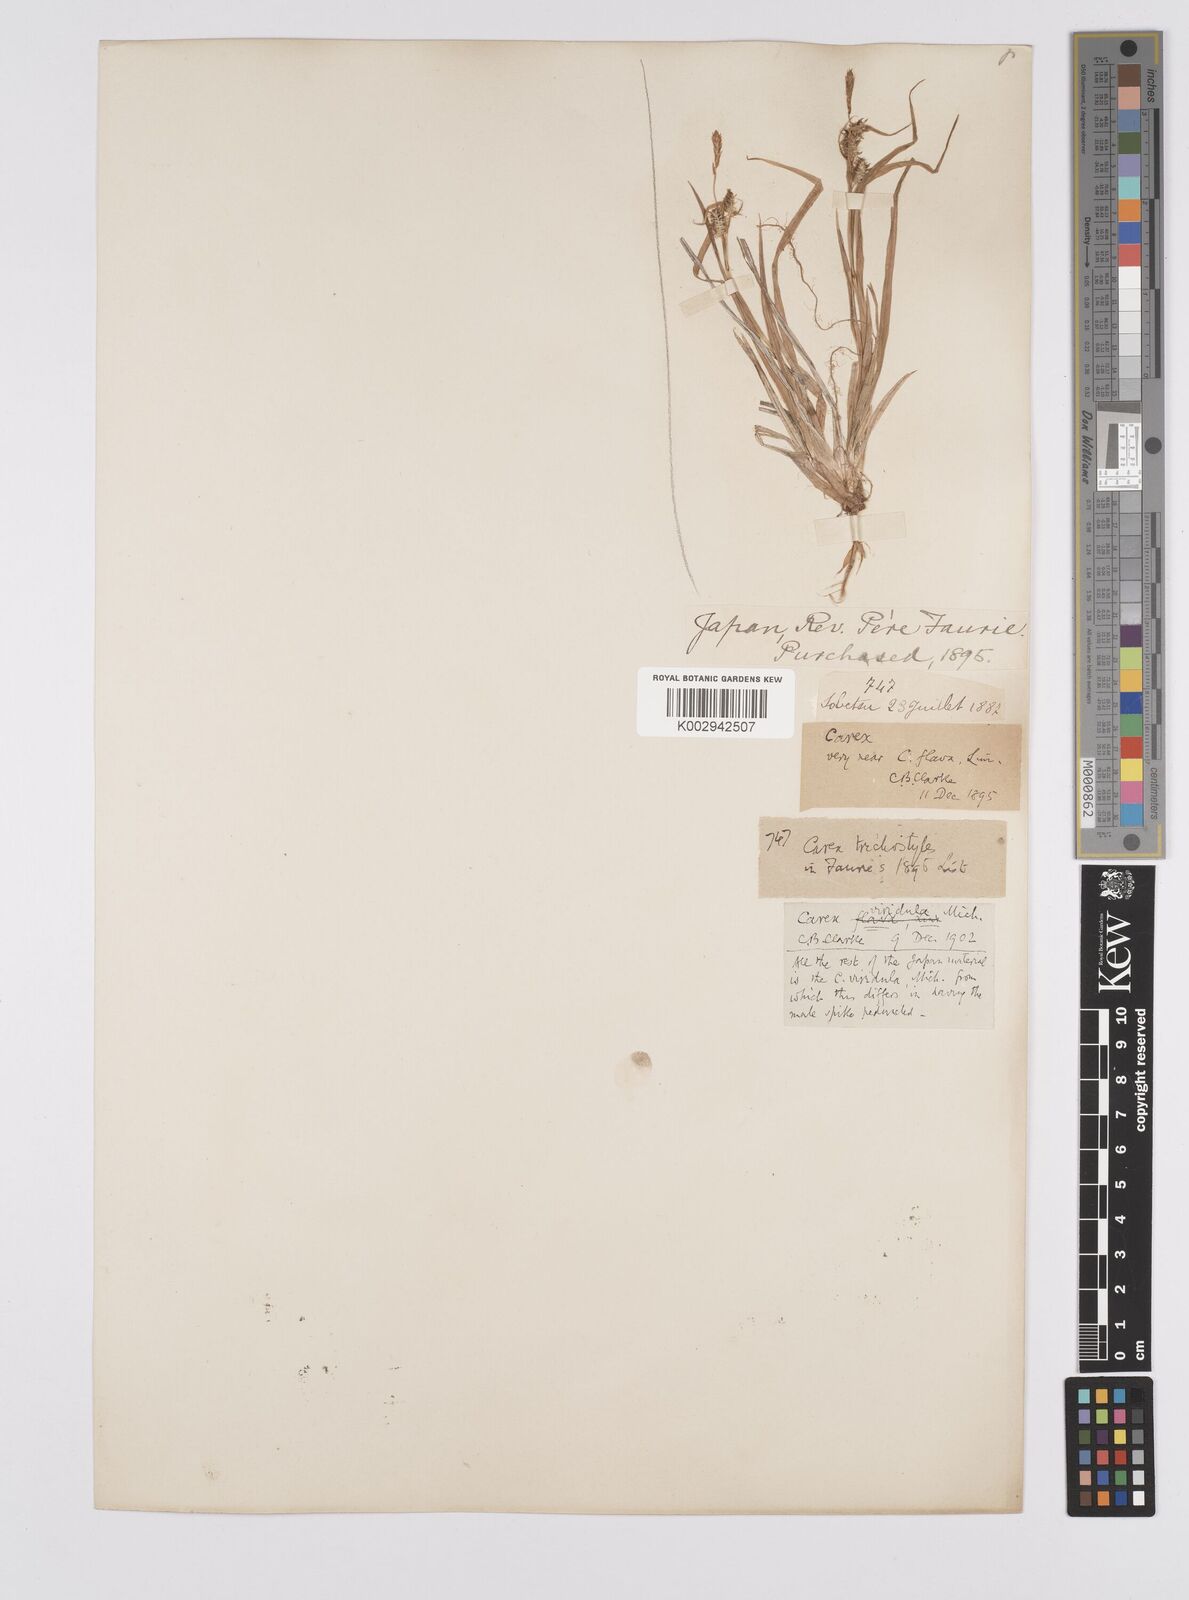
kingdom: Plantae
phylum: Tracheophyta
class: Liliopsida
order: Poales
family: Cyperaceae
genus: Carex
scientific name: Carex oederi
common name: Common & small-fruited yellow-sedge
